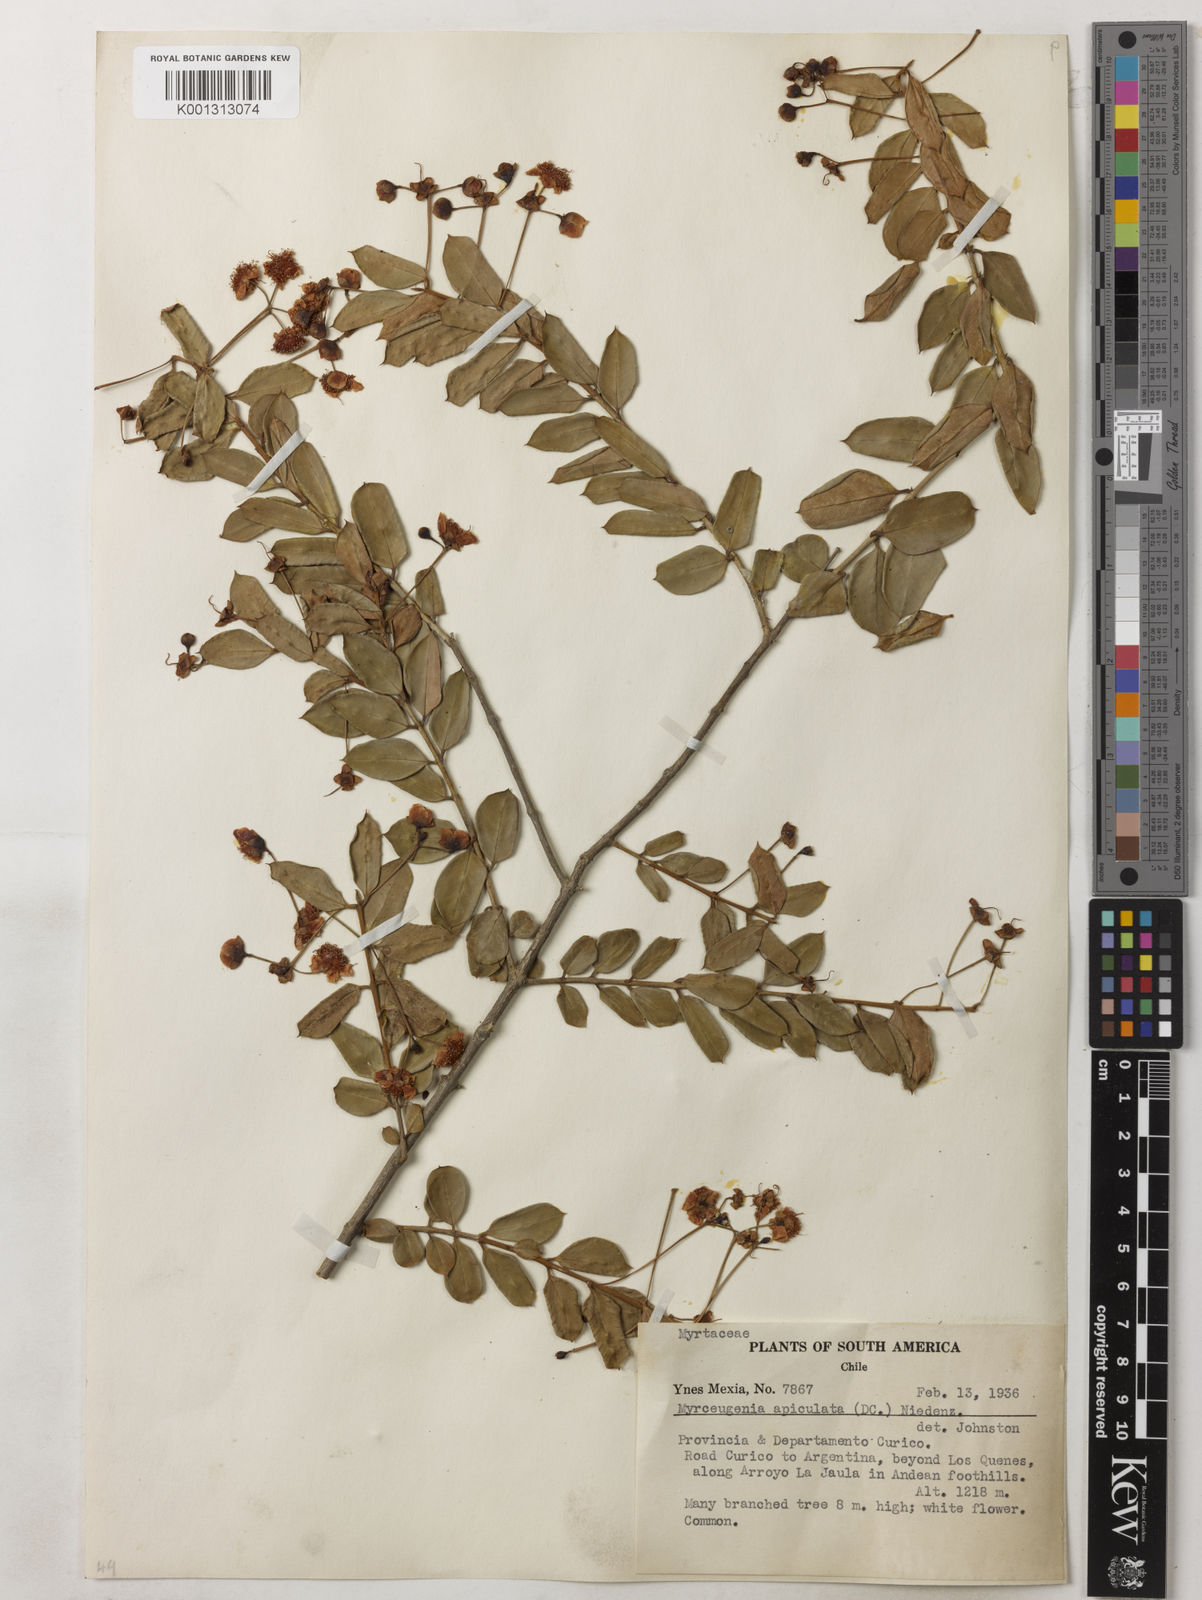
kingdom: Plantae
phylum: Tracheophyta
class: Magnoliopsida
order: Myrtales
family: Myrtaceae
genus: Luma
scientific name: Luma apiculata
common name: Chilean myrtle
